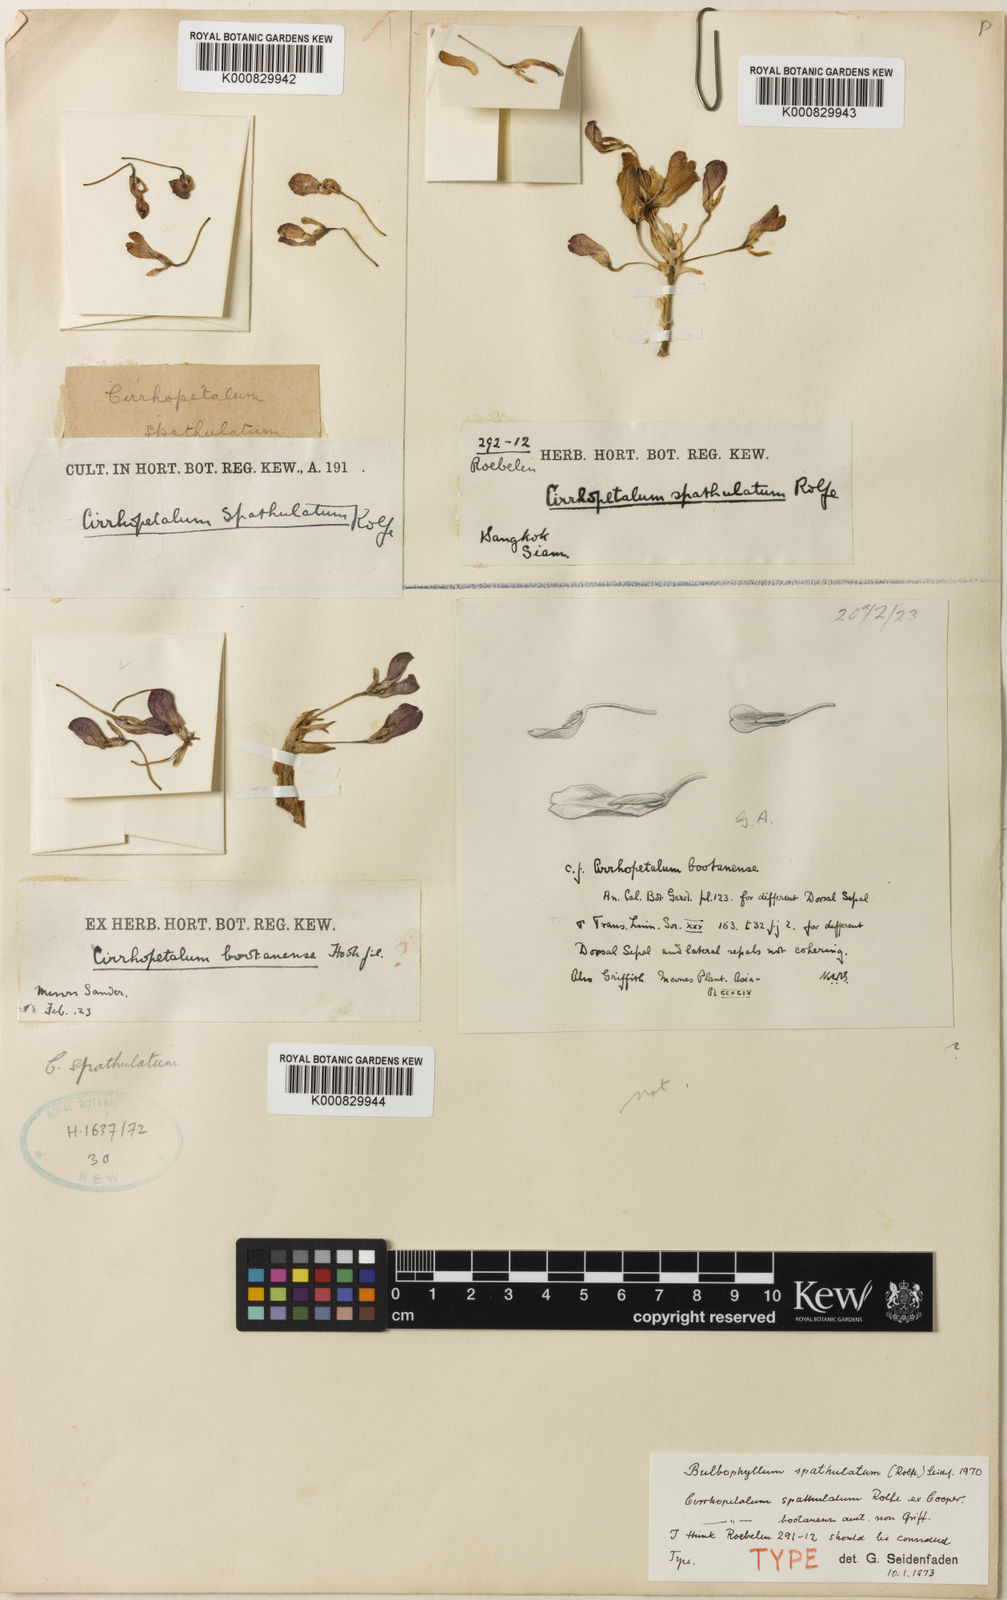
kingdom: Plantae
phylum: Tracheophyta
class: Liliopsida
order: Asparagales
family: Orchidaceae
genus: Bulbophyllum
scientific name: Bulbophyllum spathulatum
